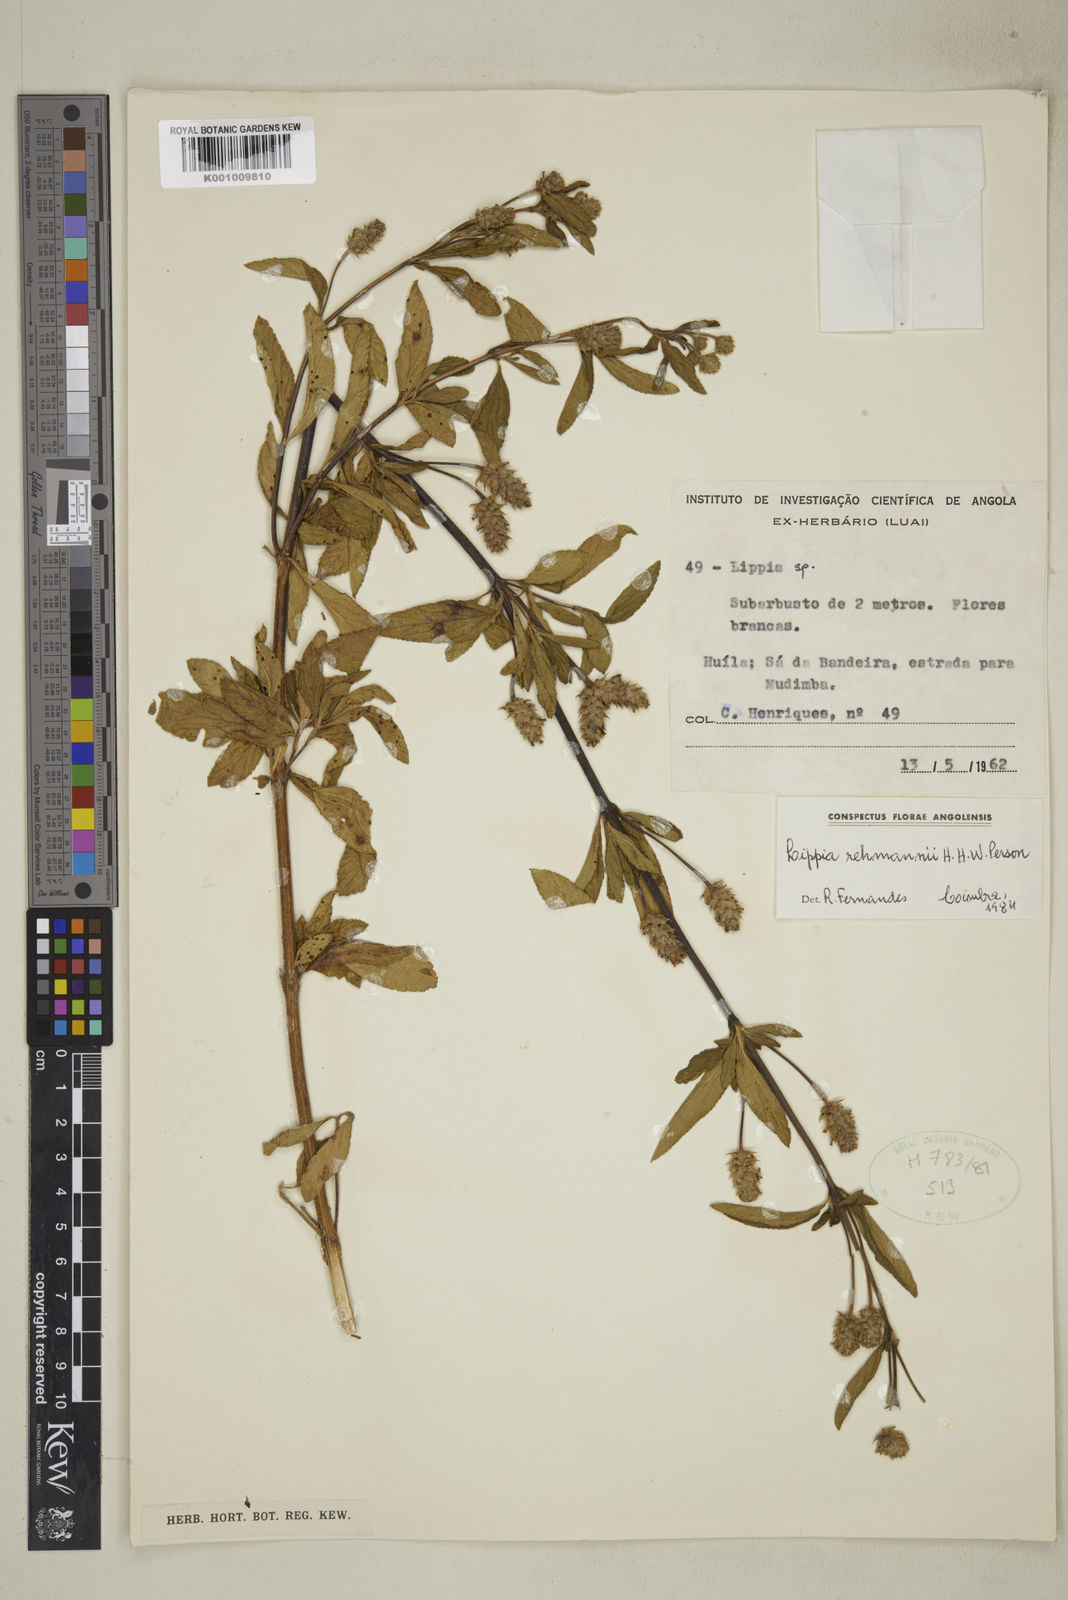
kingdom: Plantae
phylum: Tracheophyta
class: Magnoliopsida
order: Lamiales
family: Verbenaceae
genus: Lippia
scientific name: Lippia rehmannii
